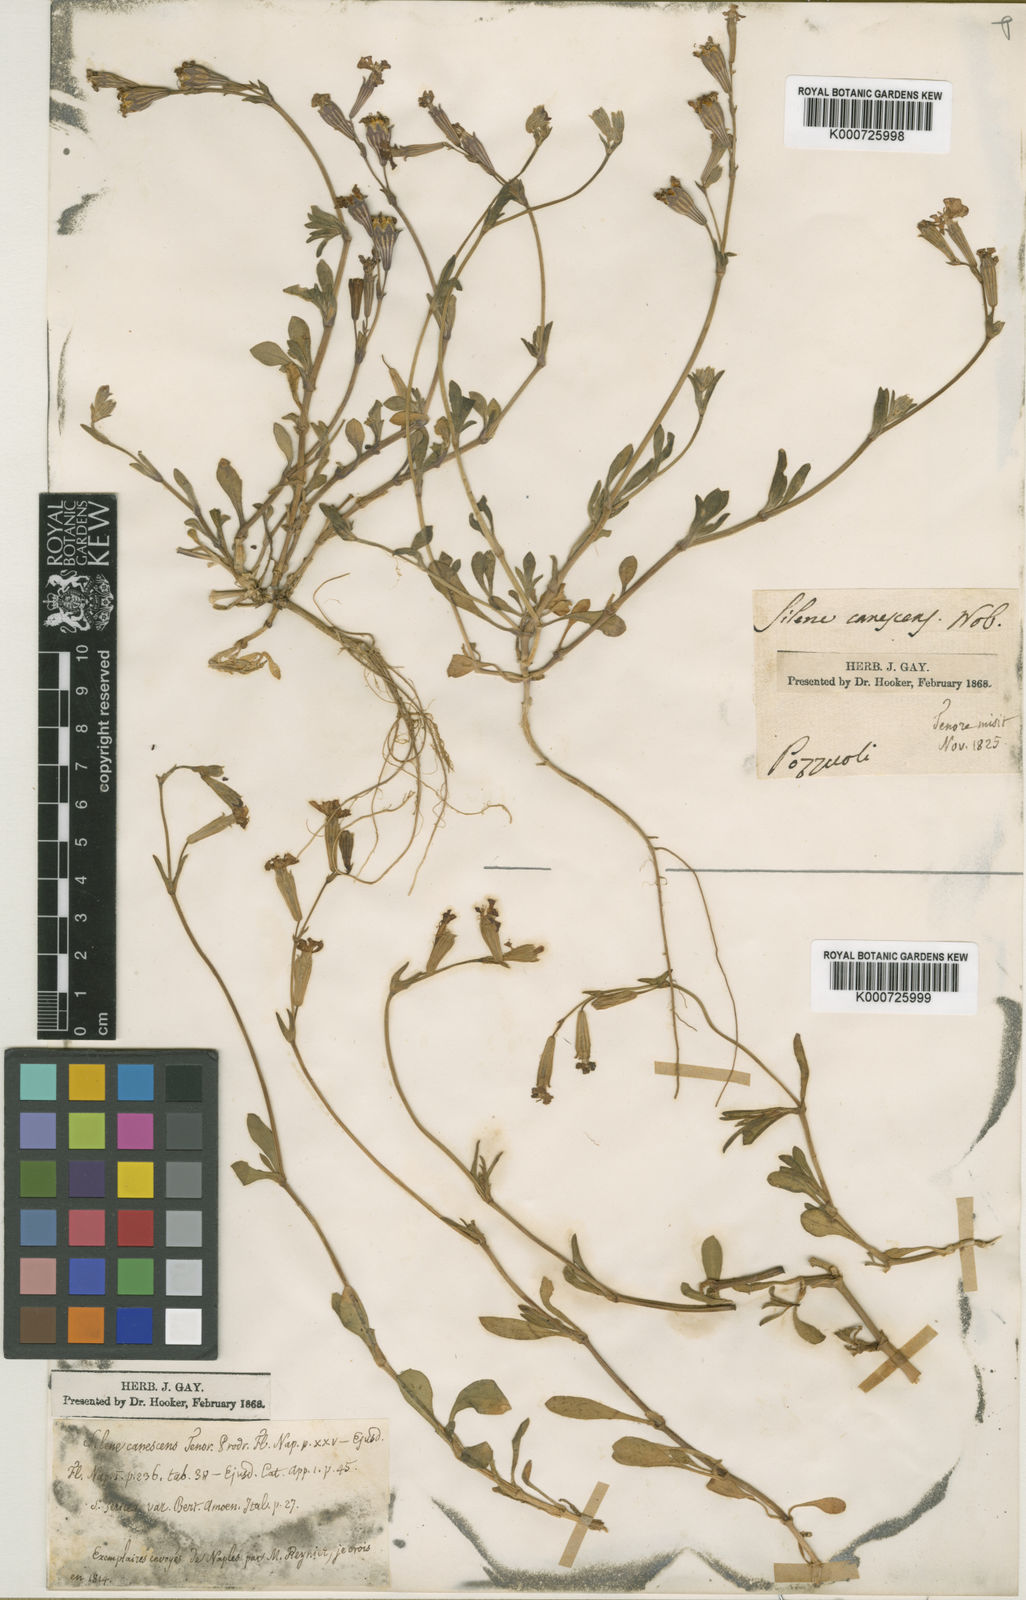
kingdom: Plantae
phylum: Tracheophyta
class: Magnoliopsida
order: Caryophyllales
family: Caryophyllaceae
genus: Silene
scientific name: Silene colorata
